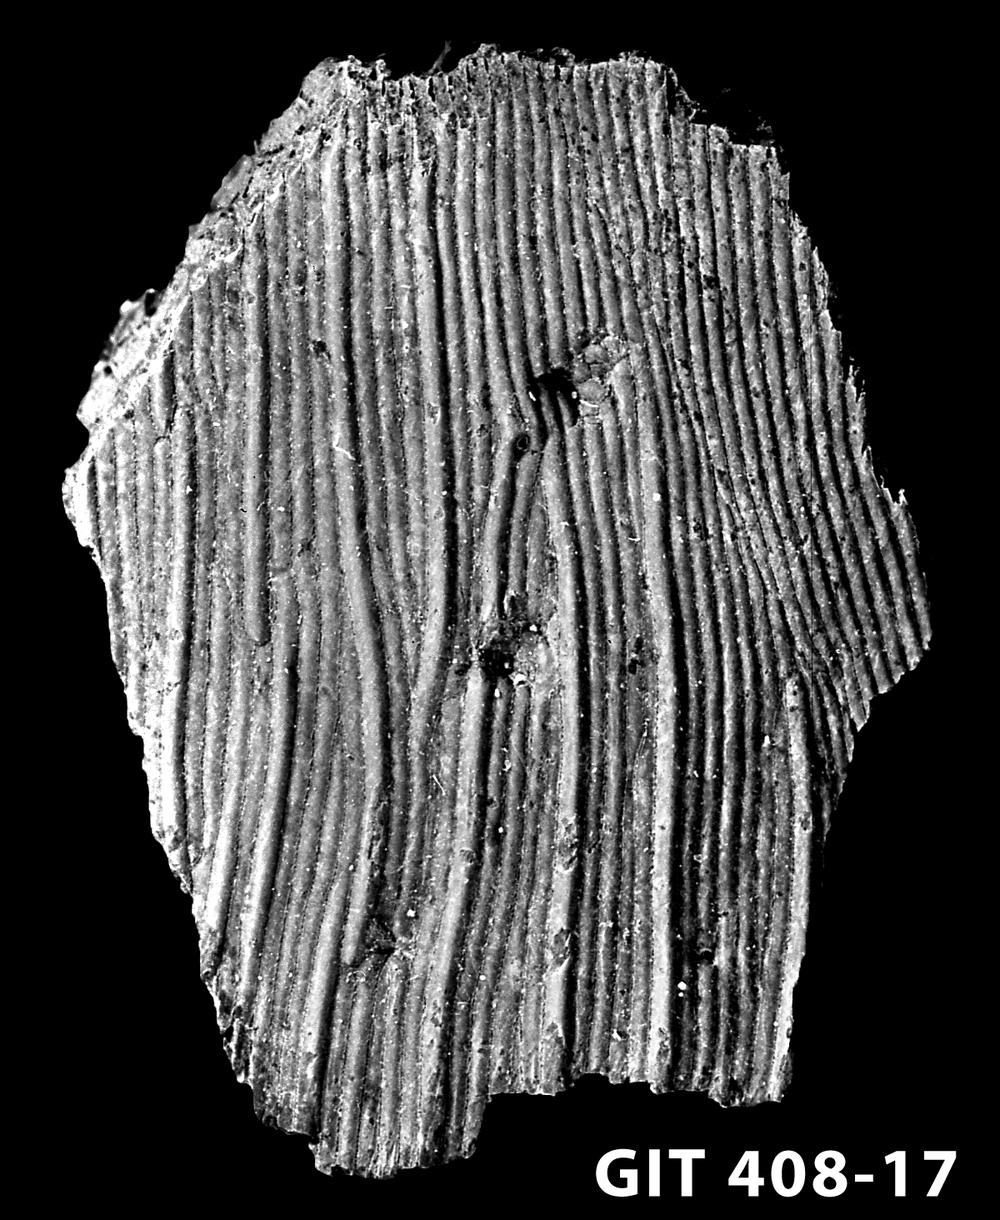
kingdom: Animalia
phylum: Chordata
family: Cyathaspididae
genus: Cyathaspis
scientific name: Cyathaspis
